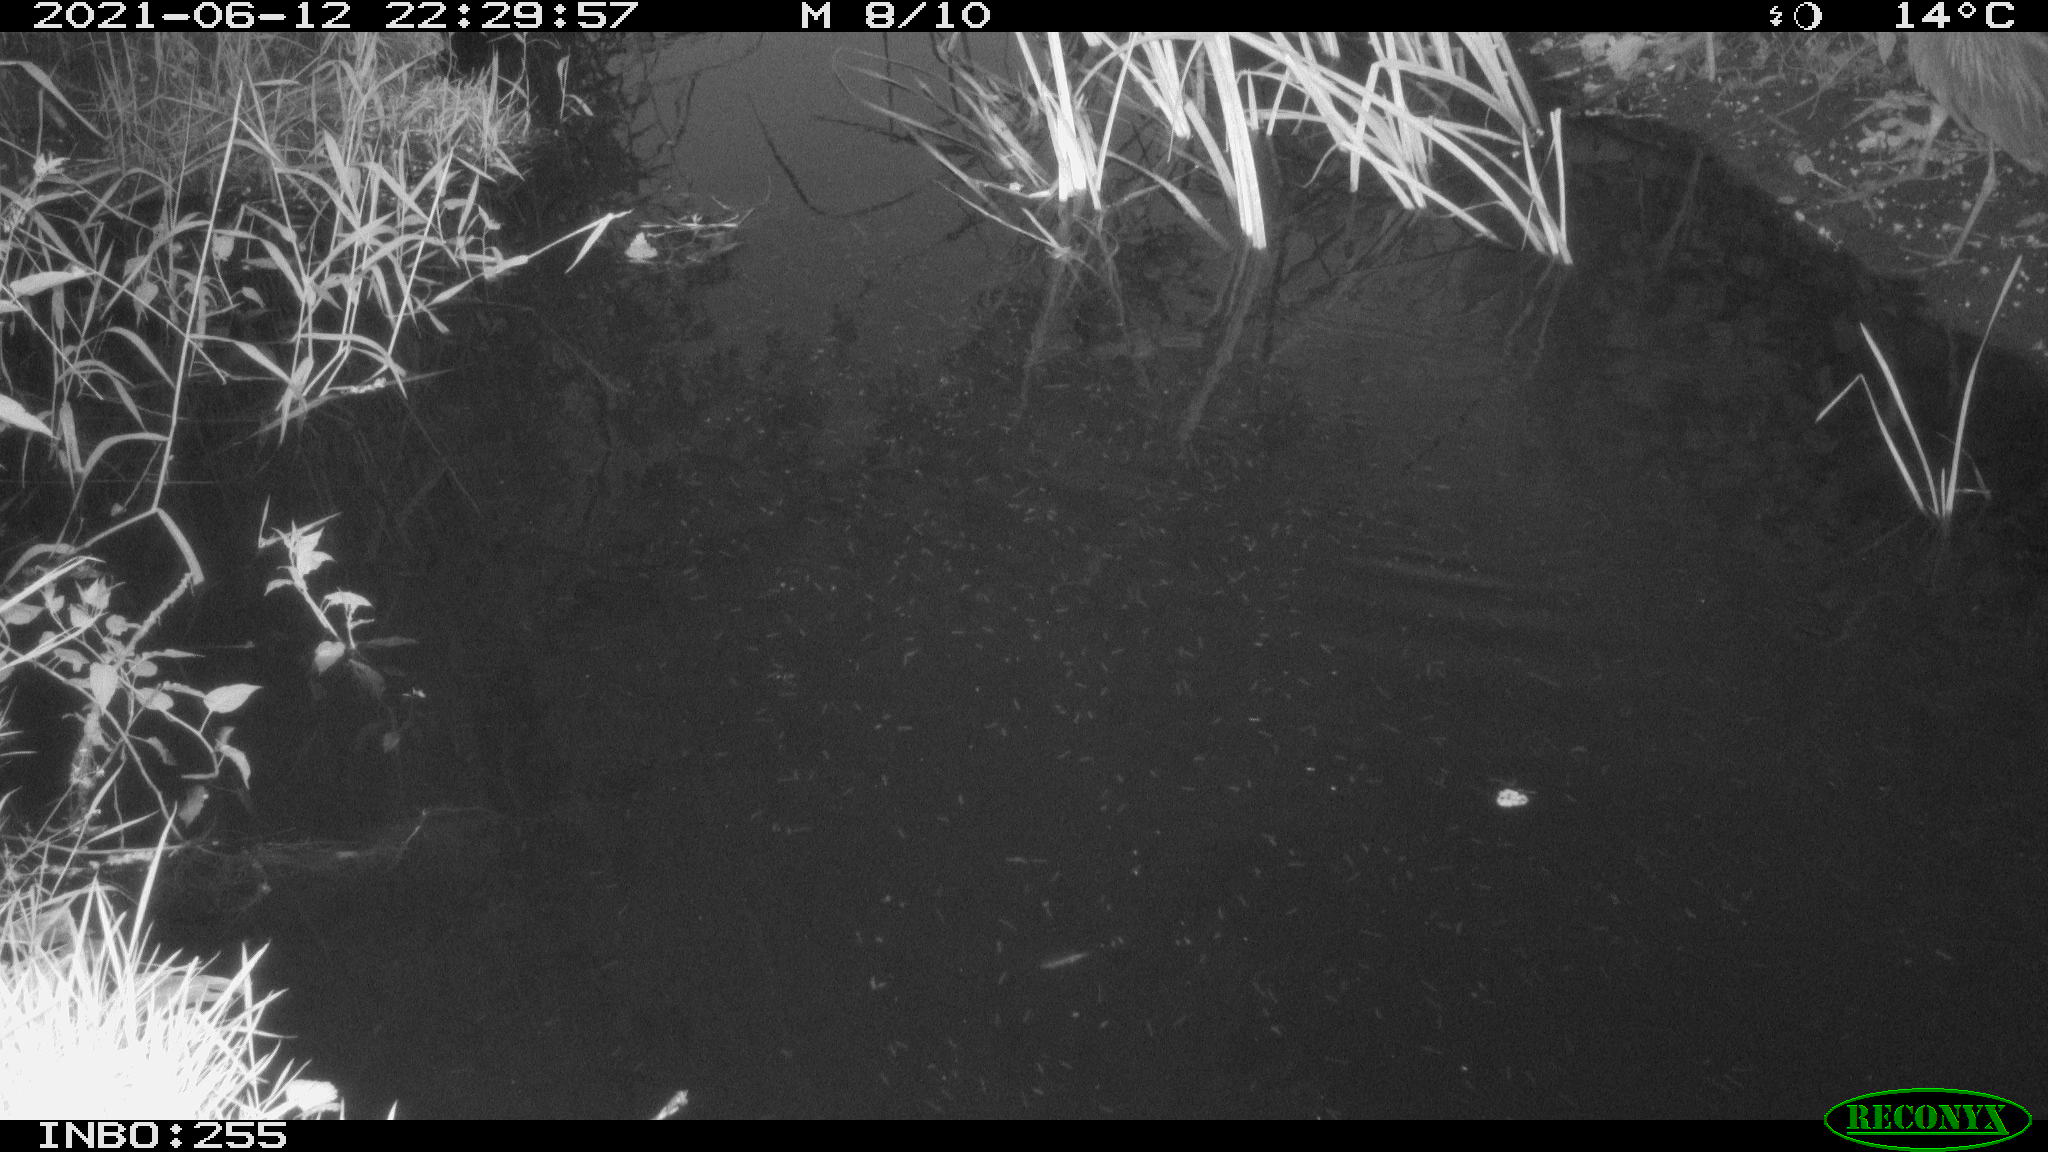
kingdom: Animalia
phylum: Chordata
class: Aves
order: Pelecaniformes
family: Ardeidae
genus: Ardea
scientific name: Ardea cinerea
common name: Grey heron
